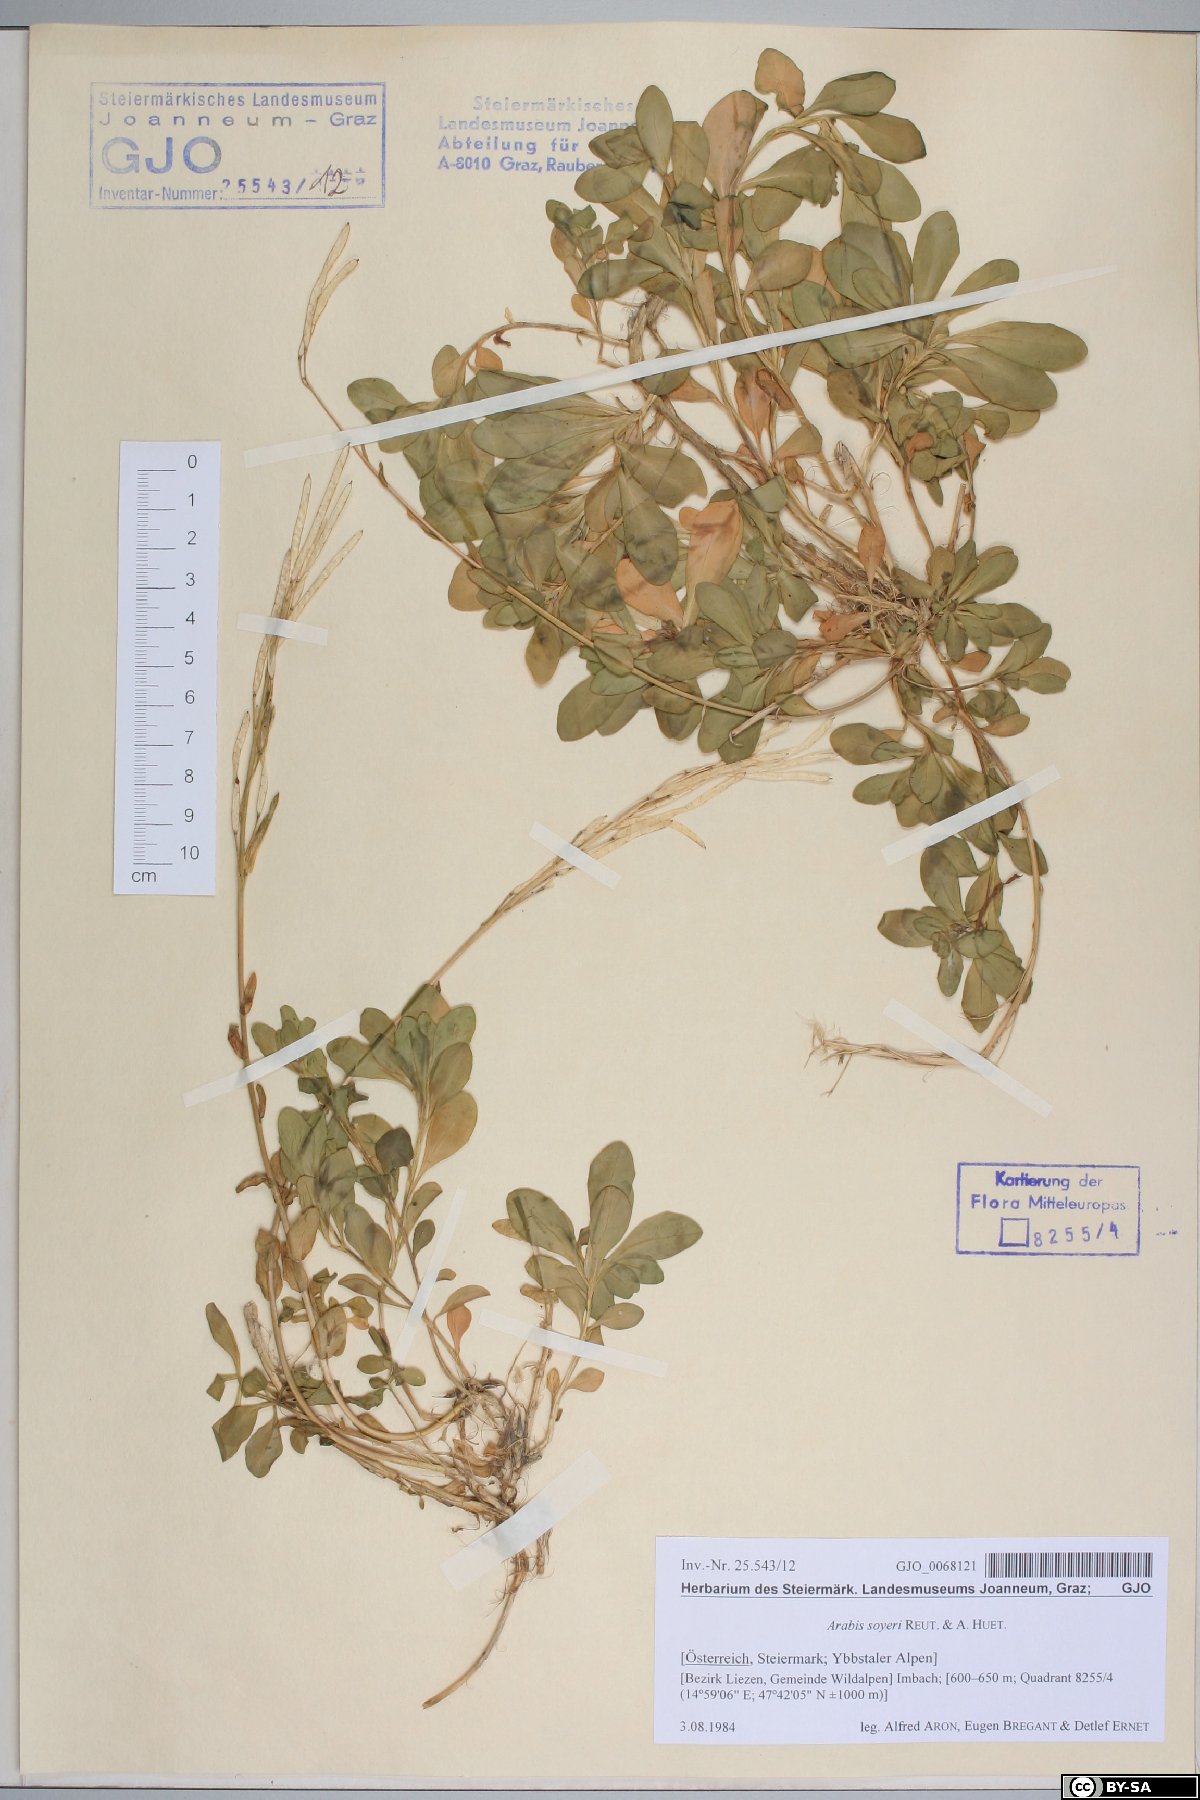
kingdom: Plantae
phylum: Tracheophyta
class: Magnoliopsida
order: Brassicales
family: Brassicaceae
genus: Arabis
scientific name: Arabis soyeri
